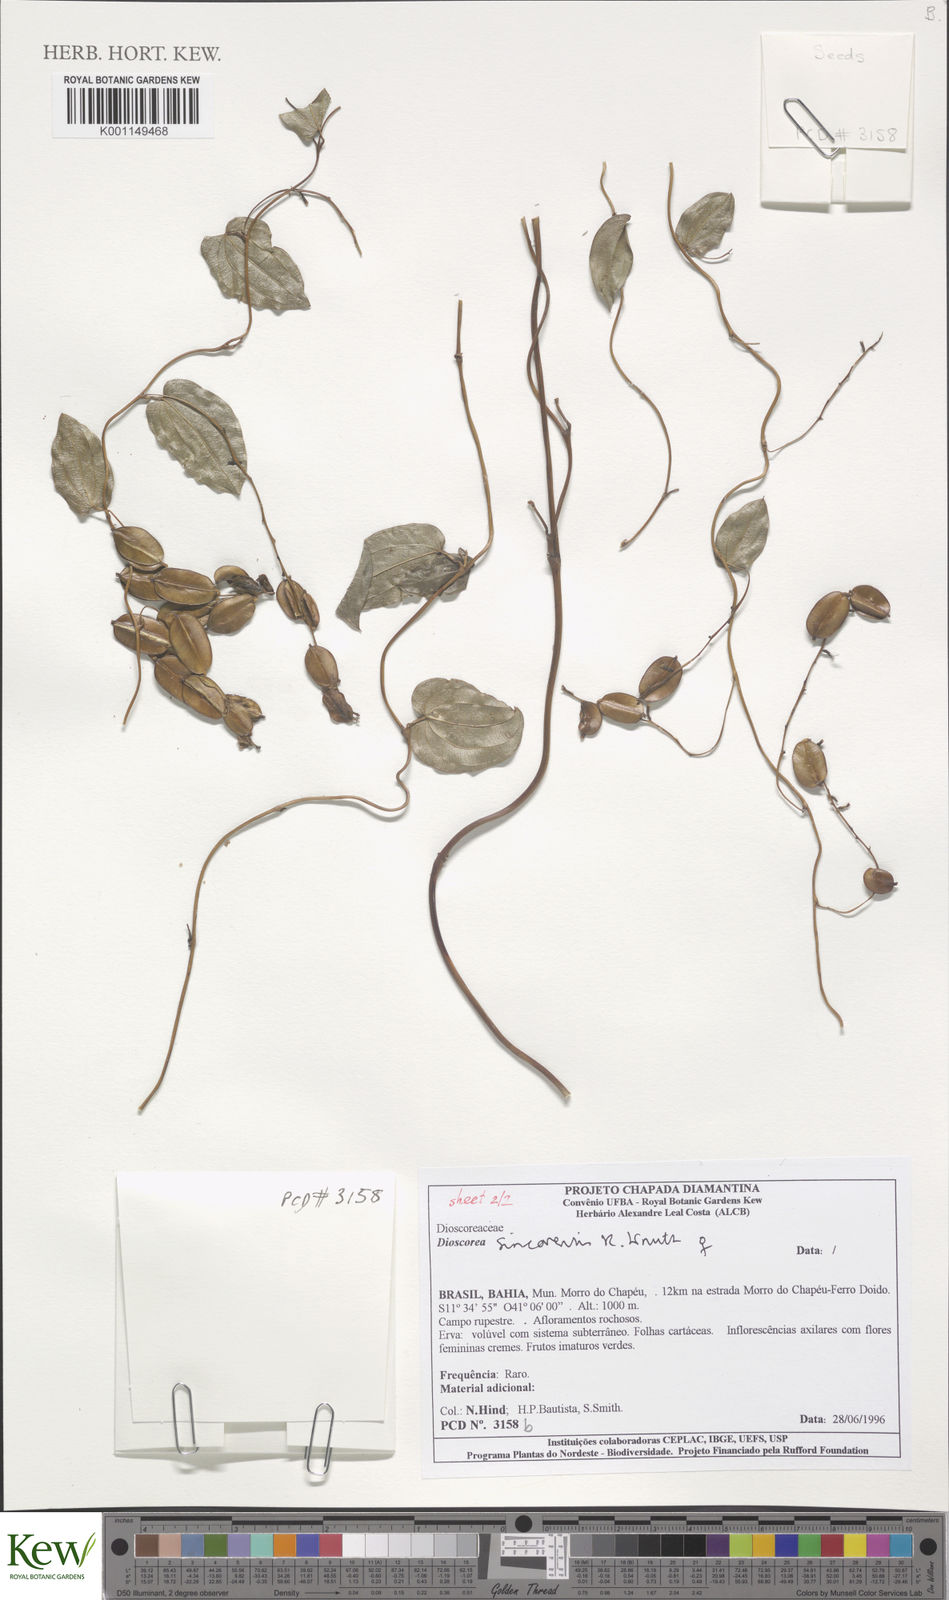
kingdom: Plantae
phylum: Tracheophyta
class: Liliopsida
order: Dioscoreales
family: Dioscoreaceae
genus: Dioscorea
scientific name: Dioscorea sincorensis
